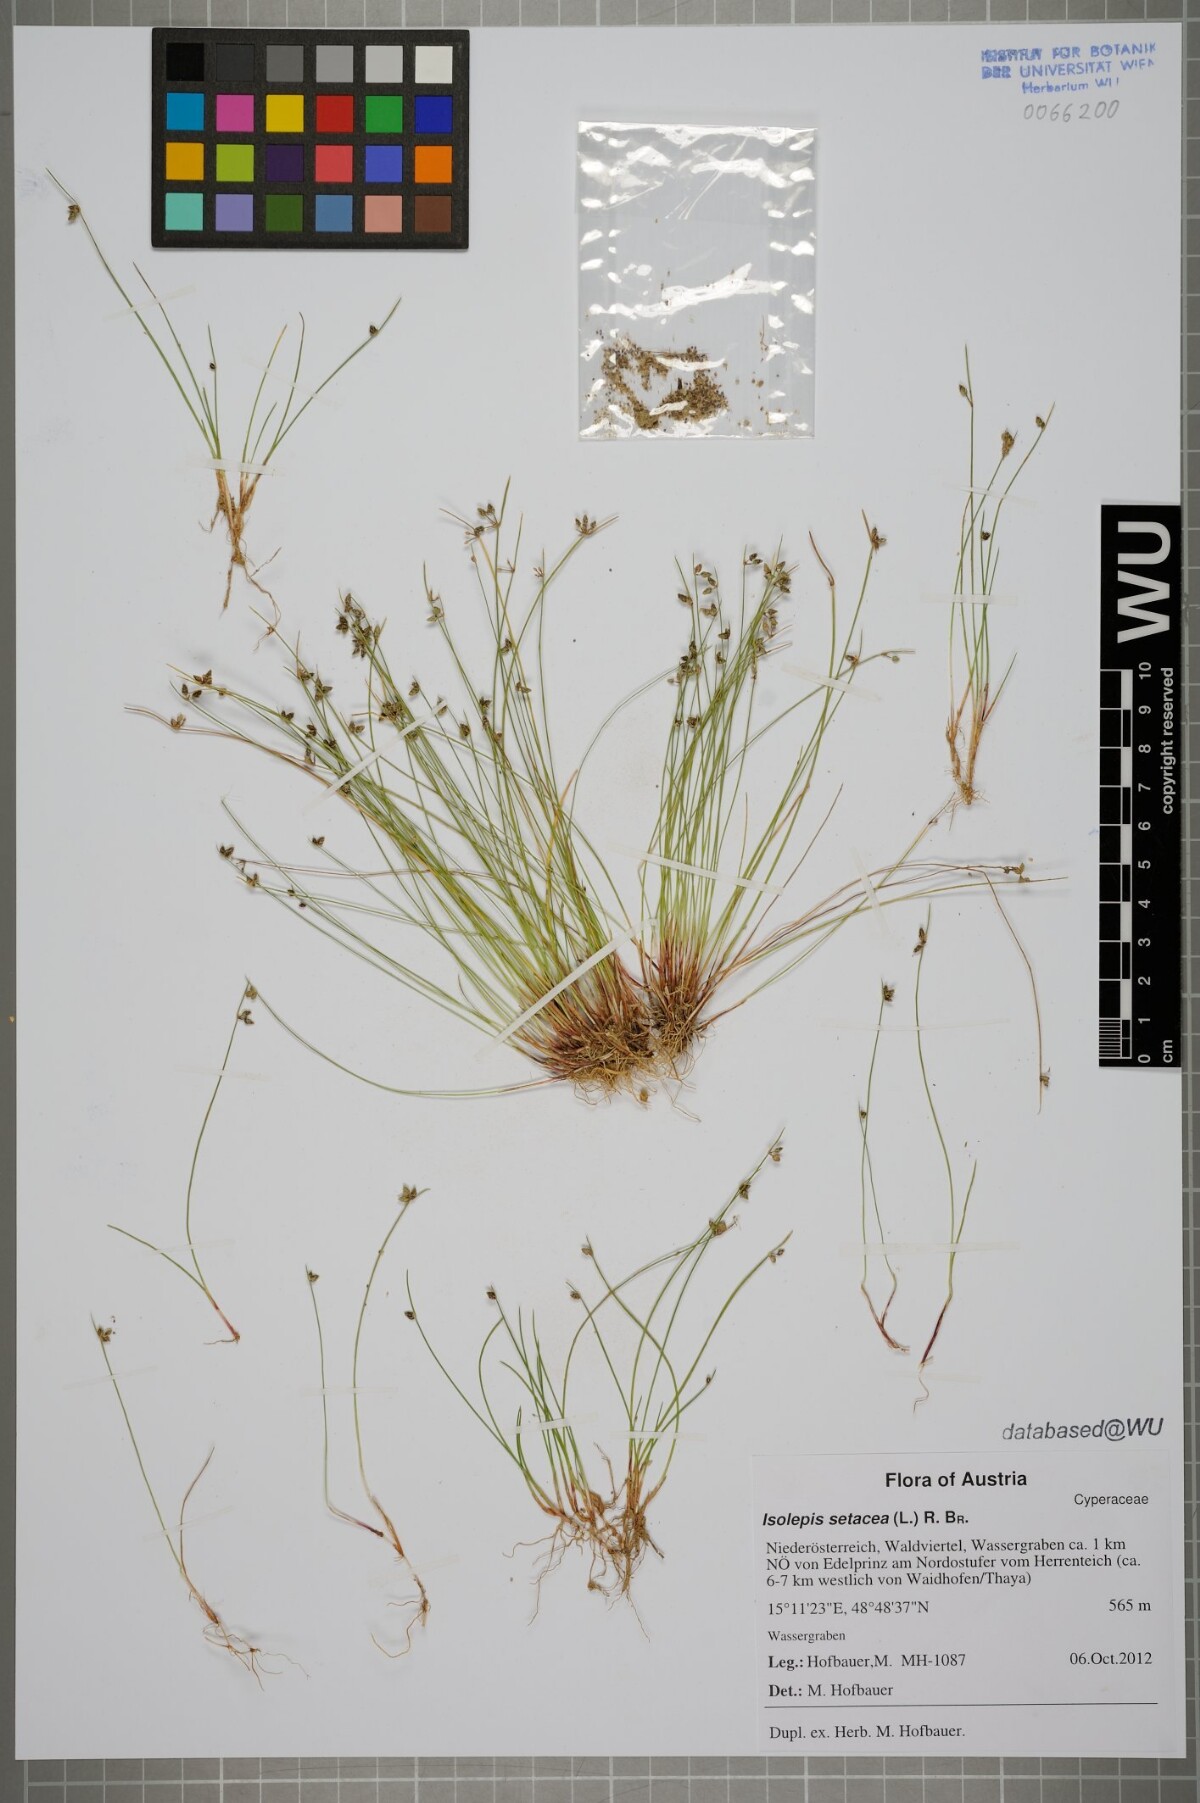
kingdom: Plantae
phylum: Tracheophyta
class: Liliopsida
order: Poales
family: Cyperaceae
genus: Isolepis
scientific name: Isolepis setacea
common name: Bristle club-rush
